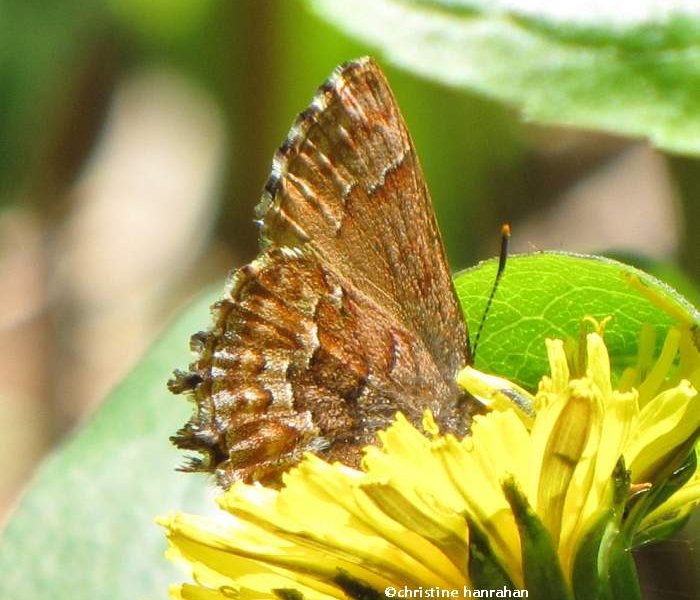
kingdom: Animalia
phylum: Arthropoda
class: Insecta
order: Lepidoptera
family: Lycaenidae
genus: Incisalia
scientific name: Incisalia niphon
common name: Eastern Pine Elfin
